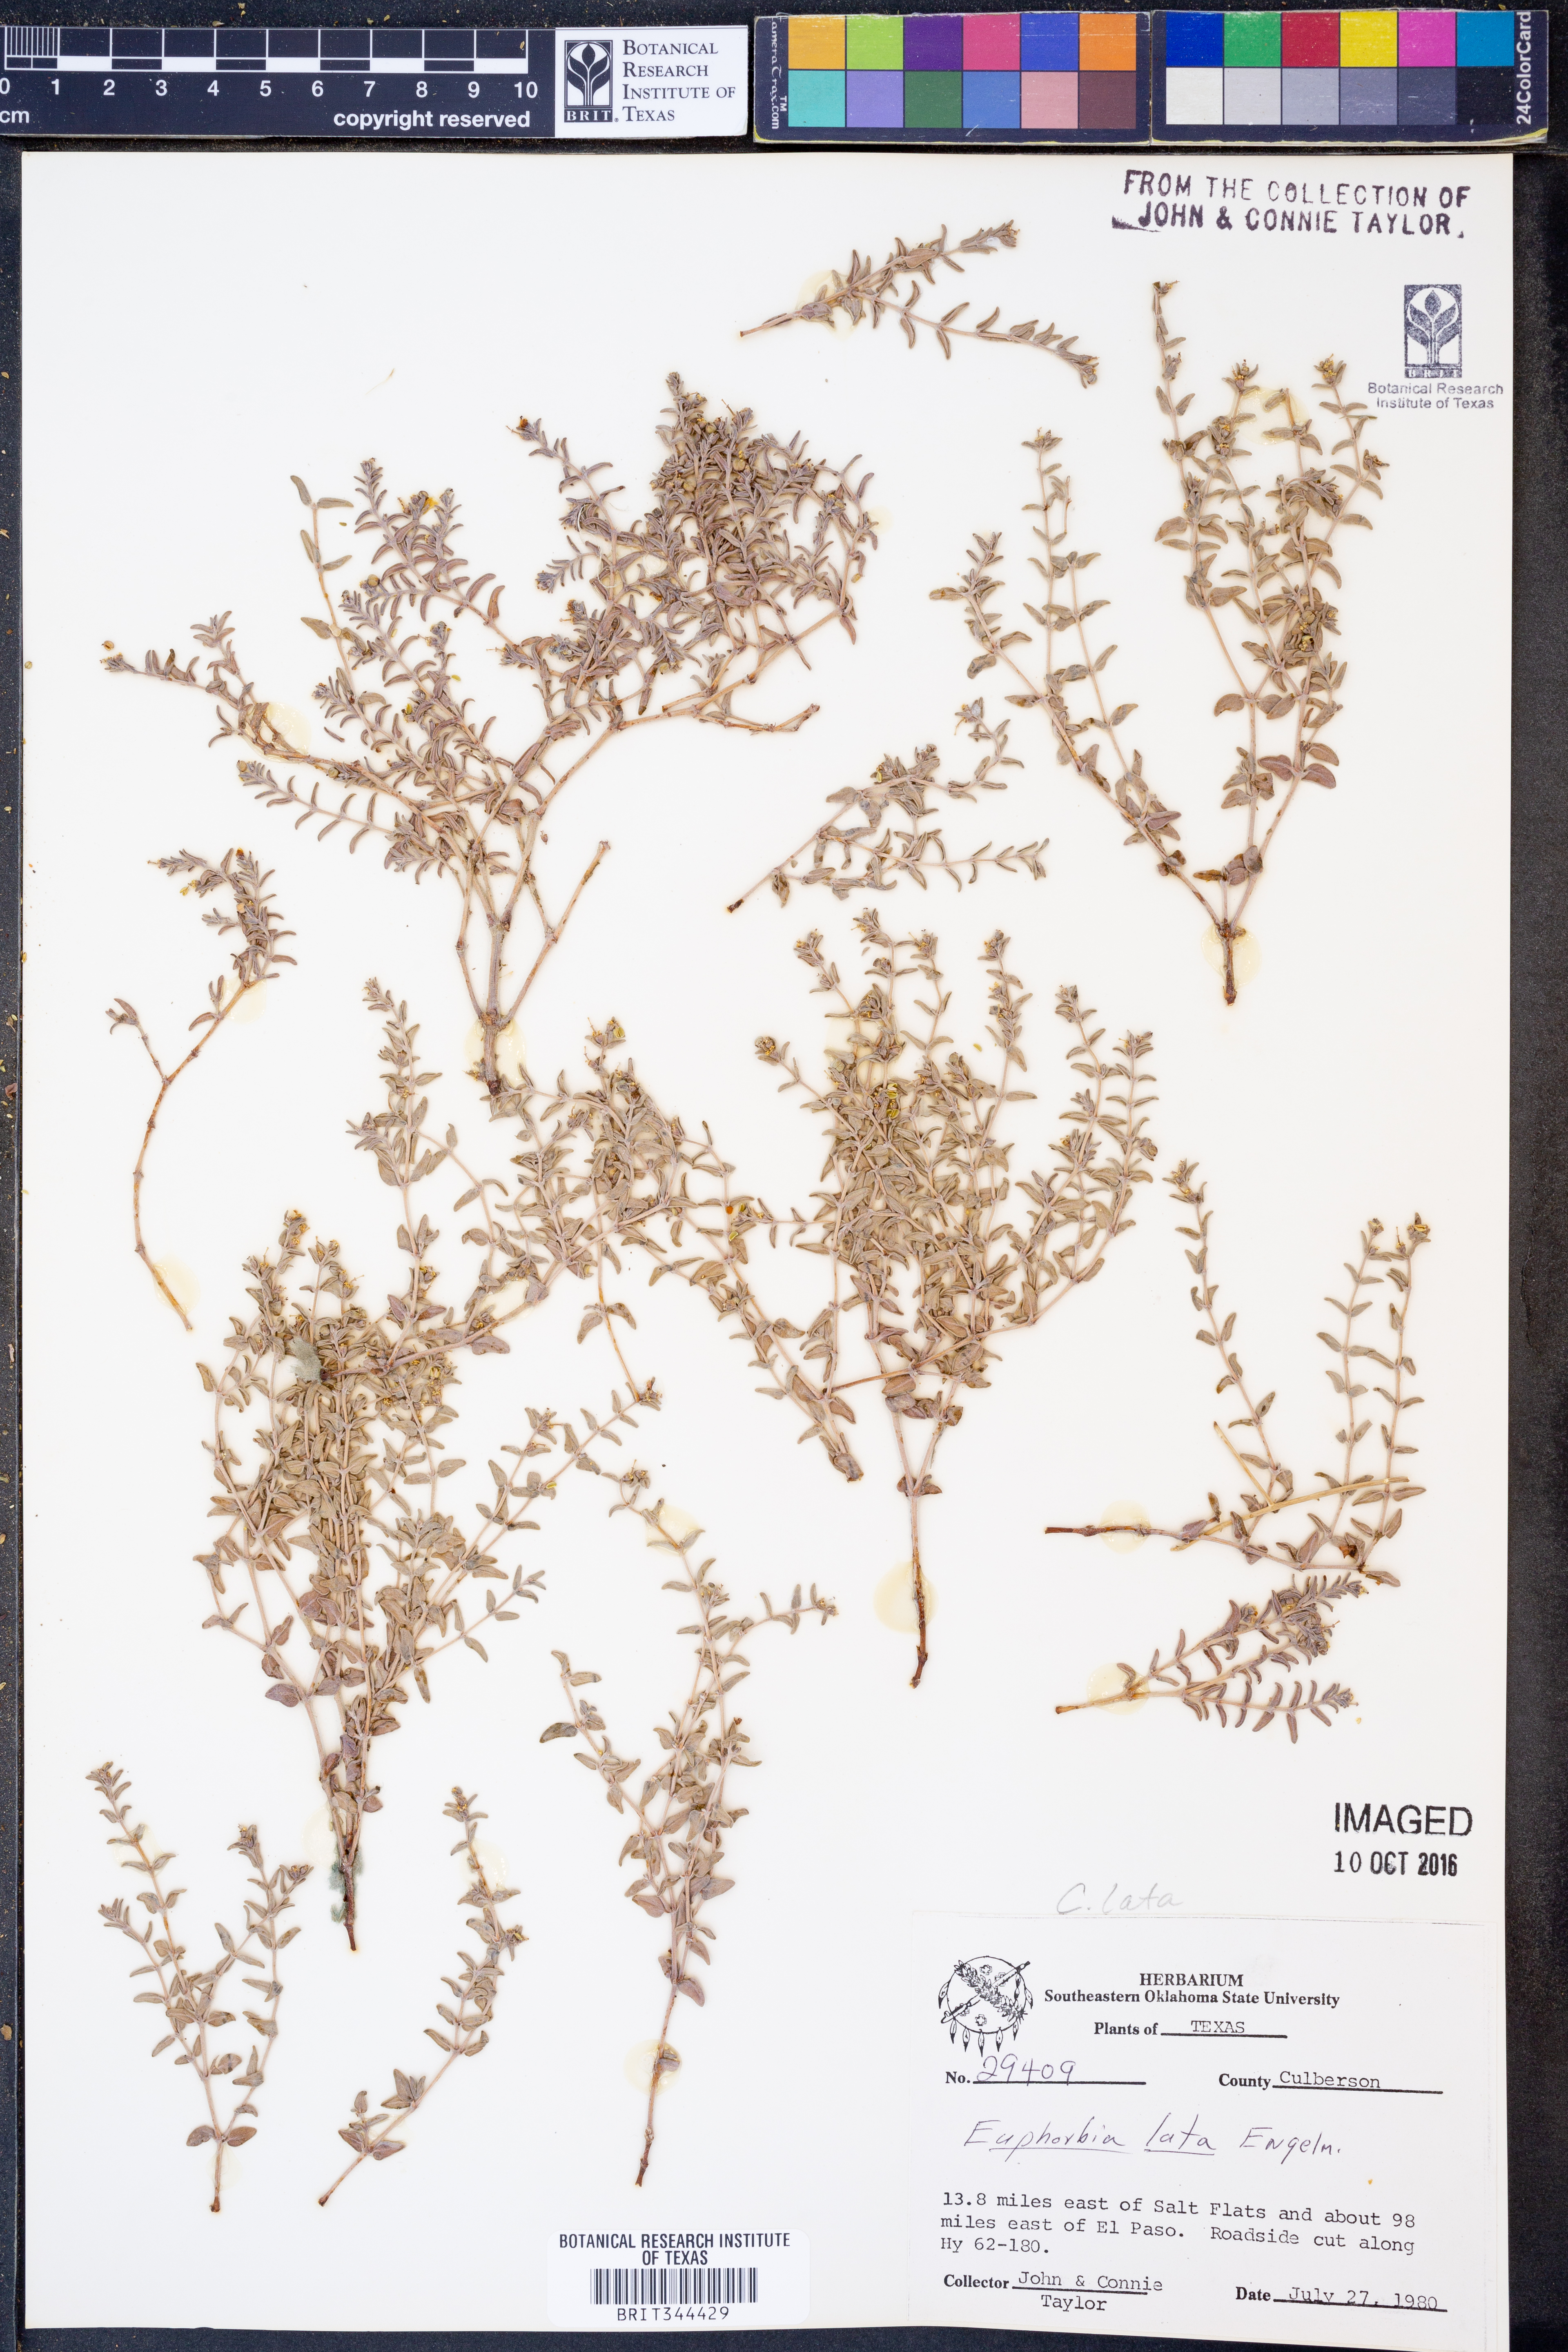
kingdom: Plantae
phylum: Tracheophyta
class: Magnoliopsida
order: Malpighiales
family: Euphorbiaceae
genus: Euphorbia
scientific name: Euphorbia lata
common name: Hoary euphorbia
